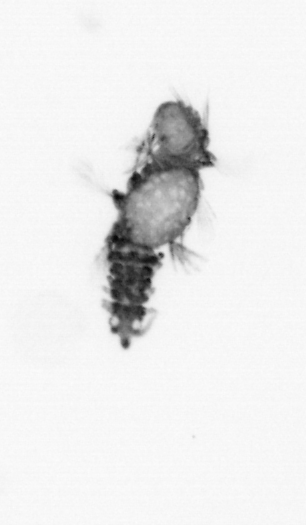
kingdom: Animalia
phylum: Annelida
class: Polychaeta
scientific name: Polychaeta
